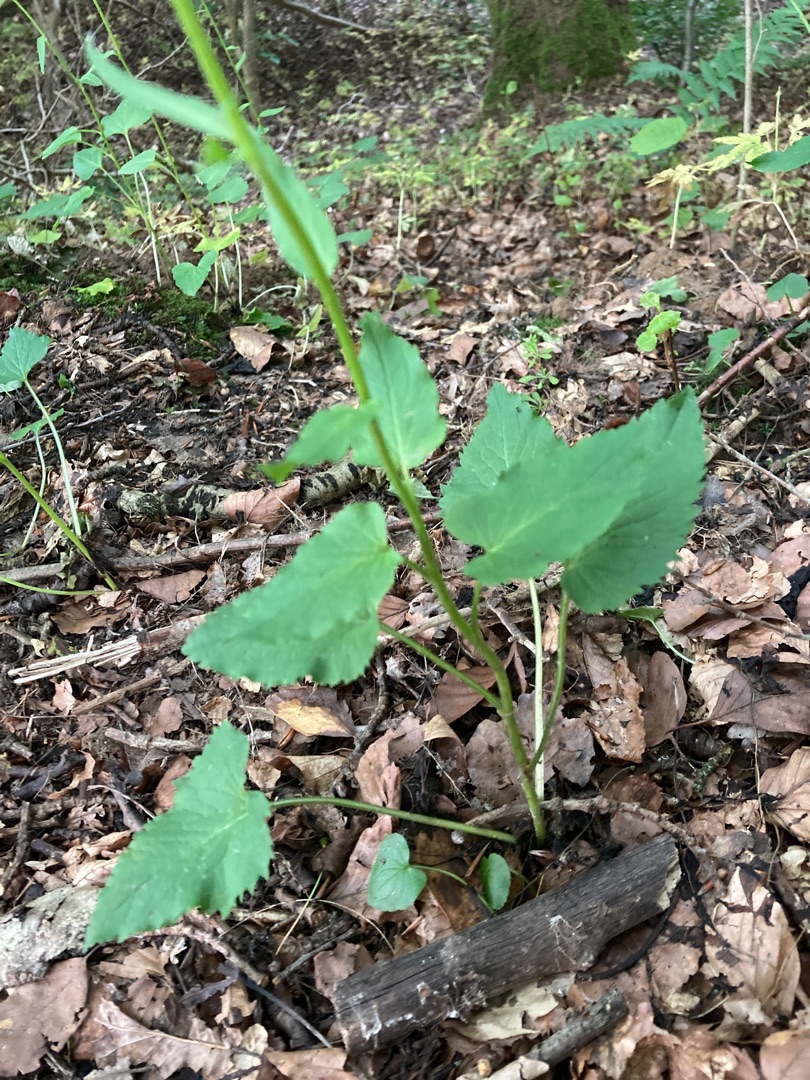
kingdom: Plantae
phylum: Tracheophyta
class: Magnoliopsida
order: Asterales
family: Campanulaceae
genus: Phyteuma
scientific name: Phyteuma spicatum
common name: Aks-rapunsel
